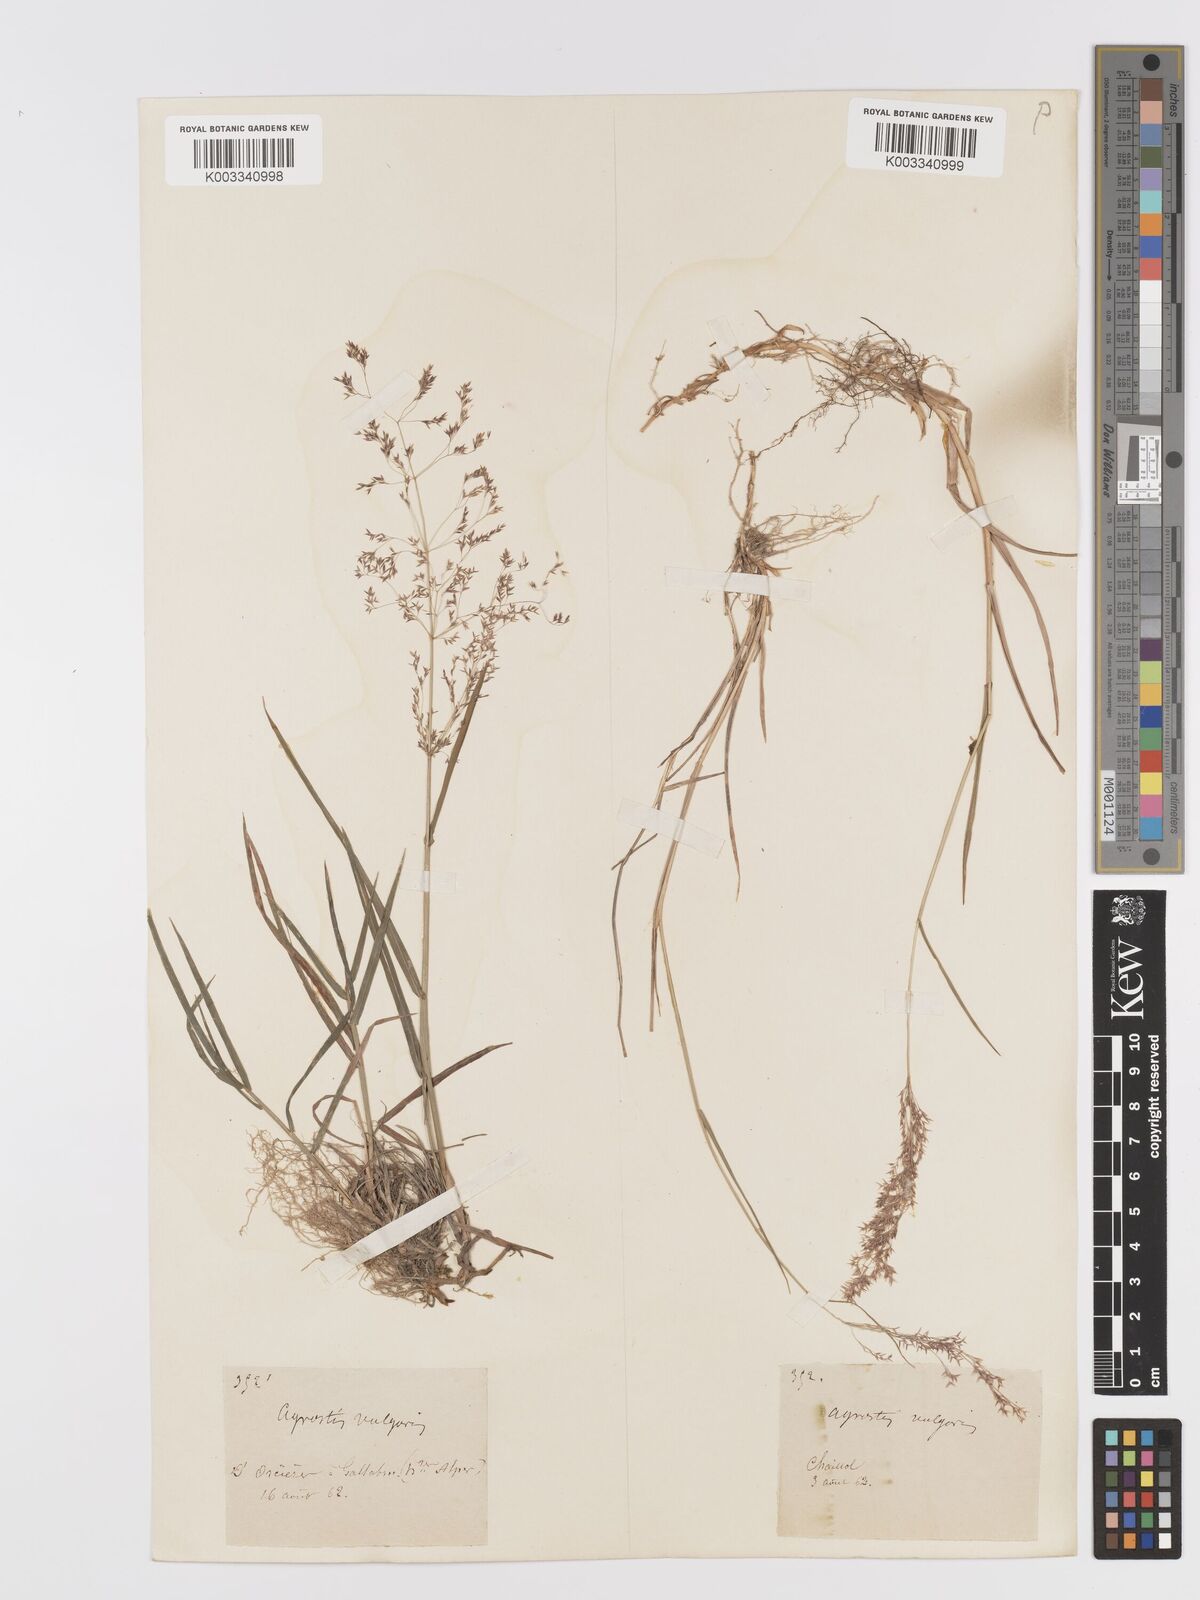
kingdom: Plantae
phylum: Tracheophyta
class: Liliopsida
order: Poales
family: Poaceae
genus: Agrostis
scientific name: Agrostis capillaris
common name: Colonial bentgrass
